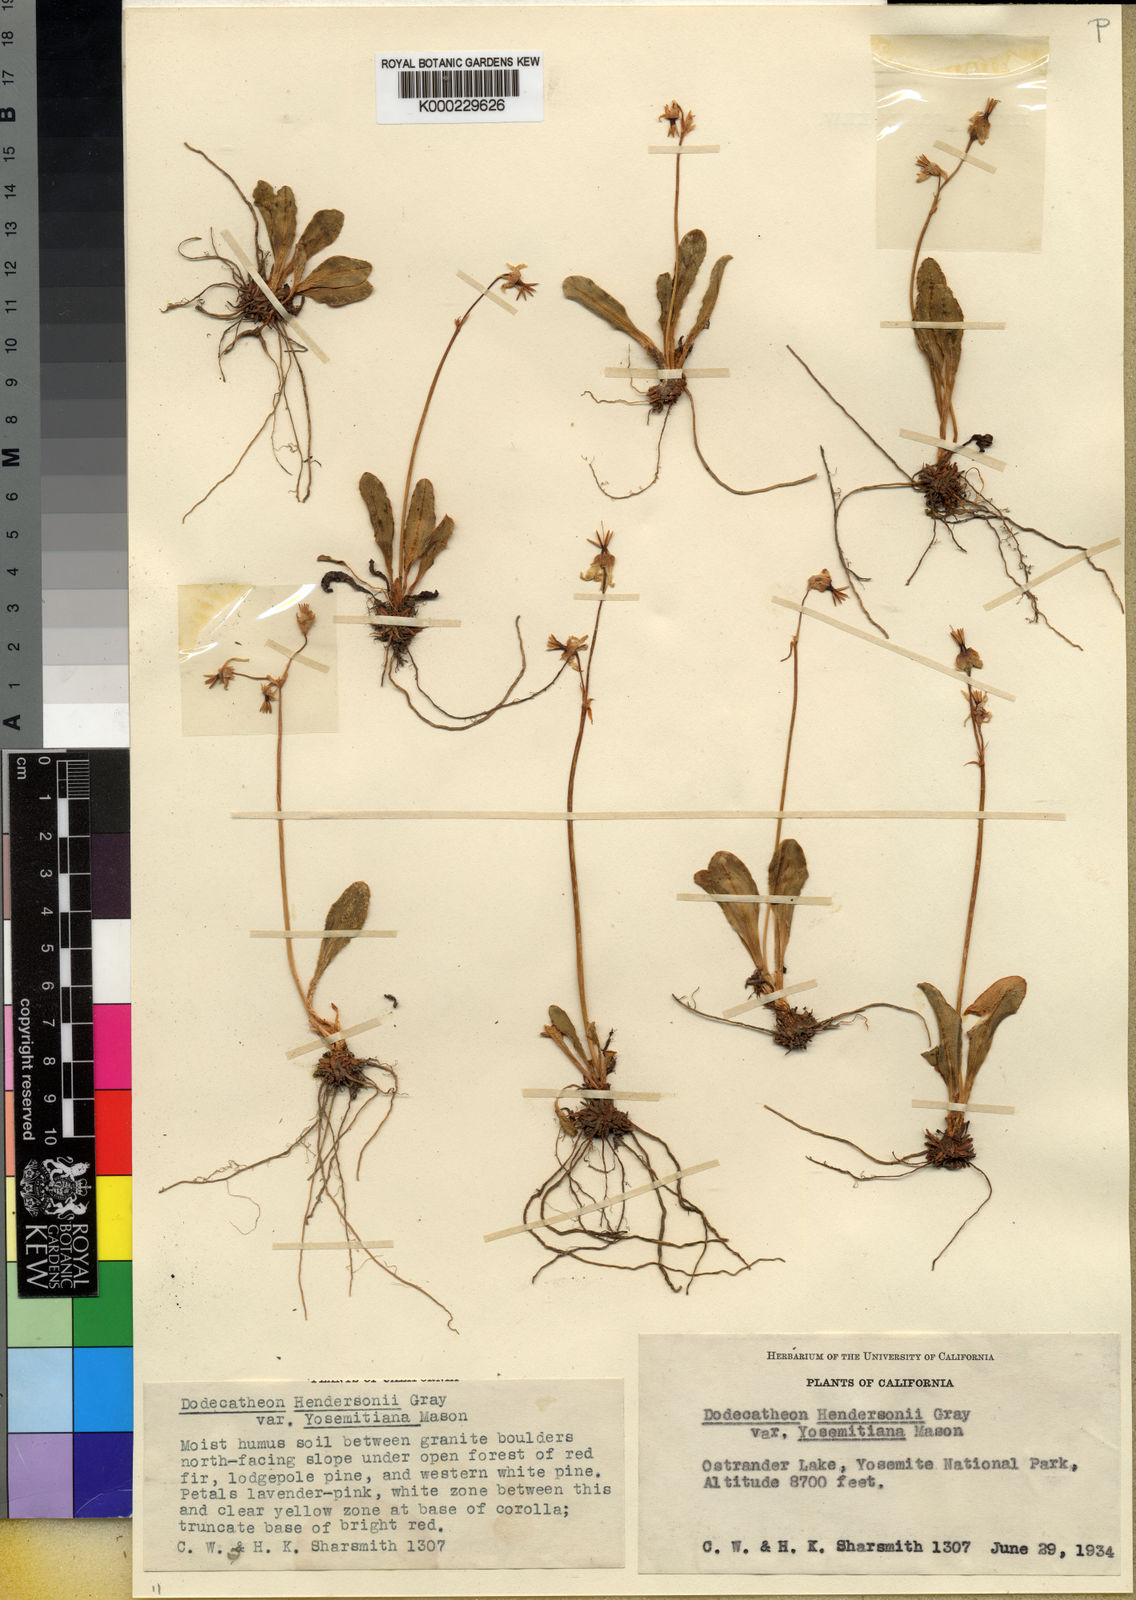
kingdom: Plantae
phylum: Tracheophyta
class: Magnoliopsida
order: Ericales
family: Primulaceae
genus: Dodecatheon
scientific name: Dodecatheon subalpinum
